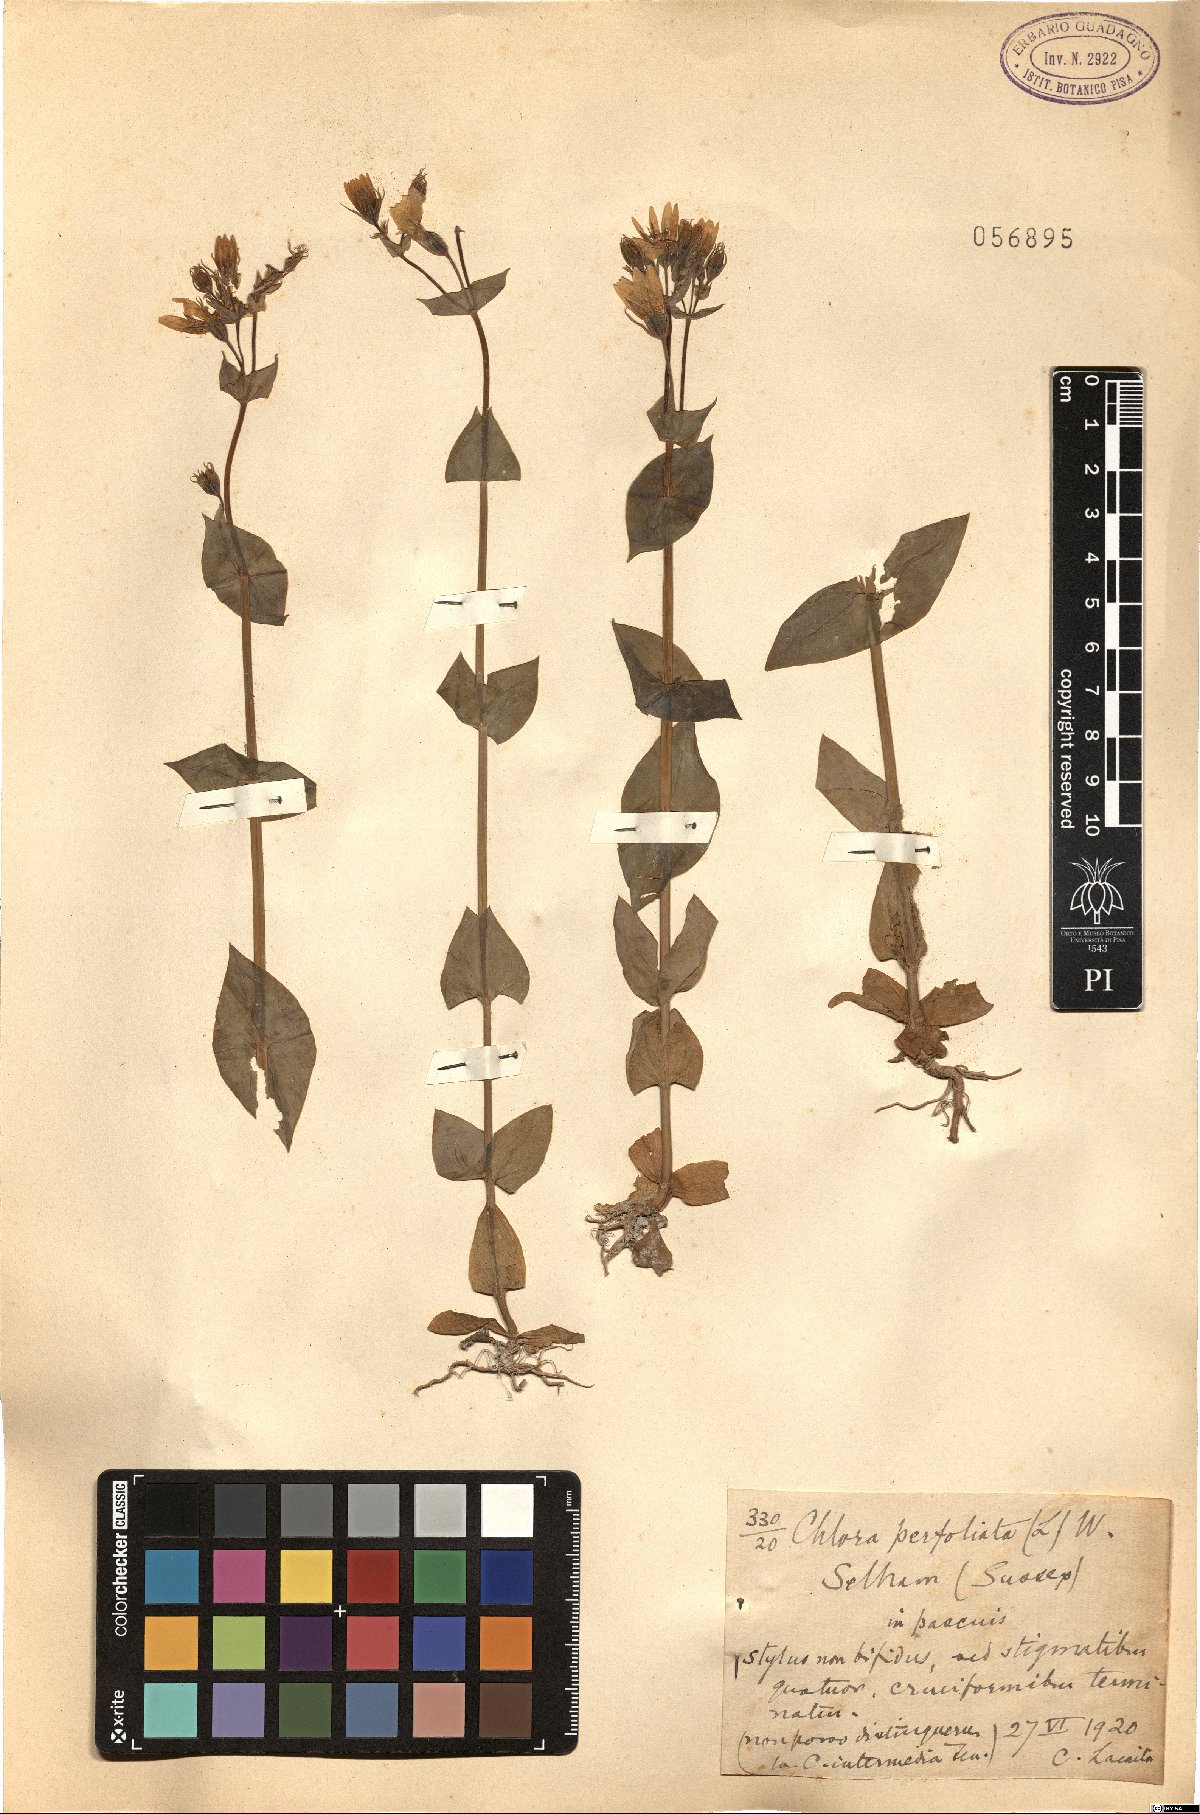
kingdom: Plantae
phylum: Tracheophyta
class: Magnoliopsida
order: Gentianales
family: Gentianaceae
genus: Blackstonia
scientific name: Blackstonia perfoliata
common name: Yellow-wort
